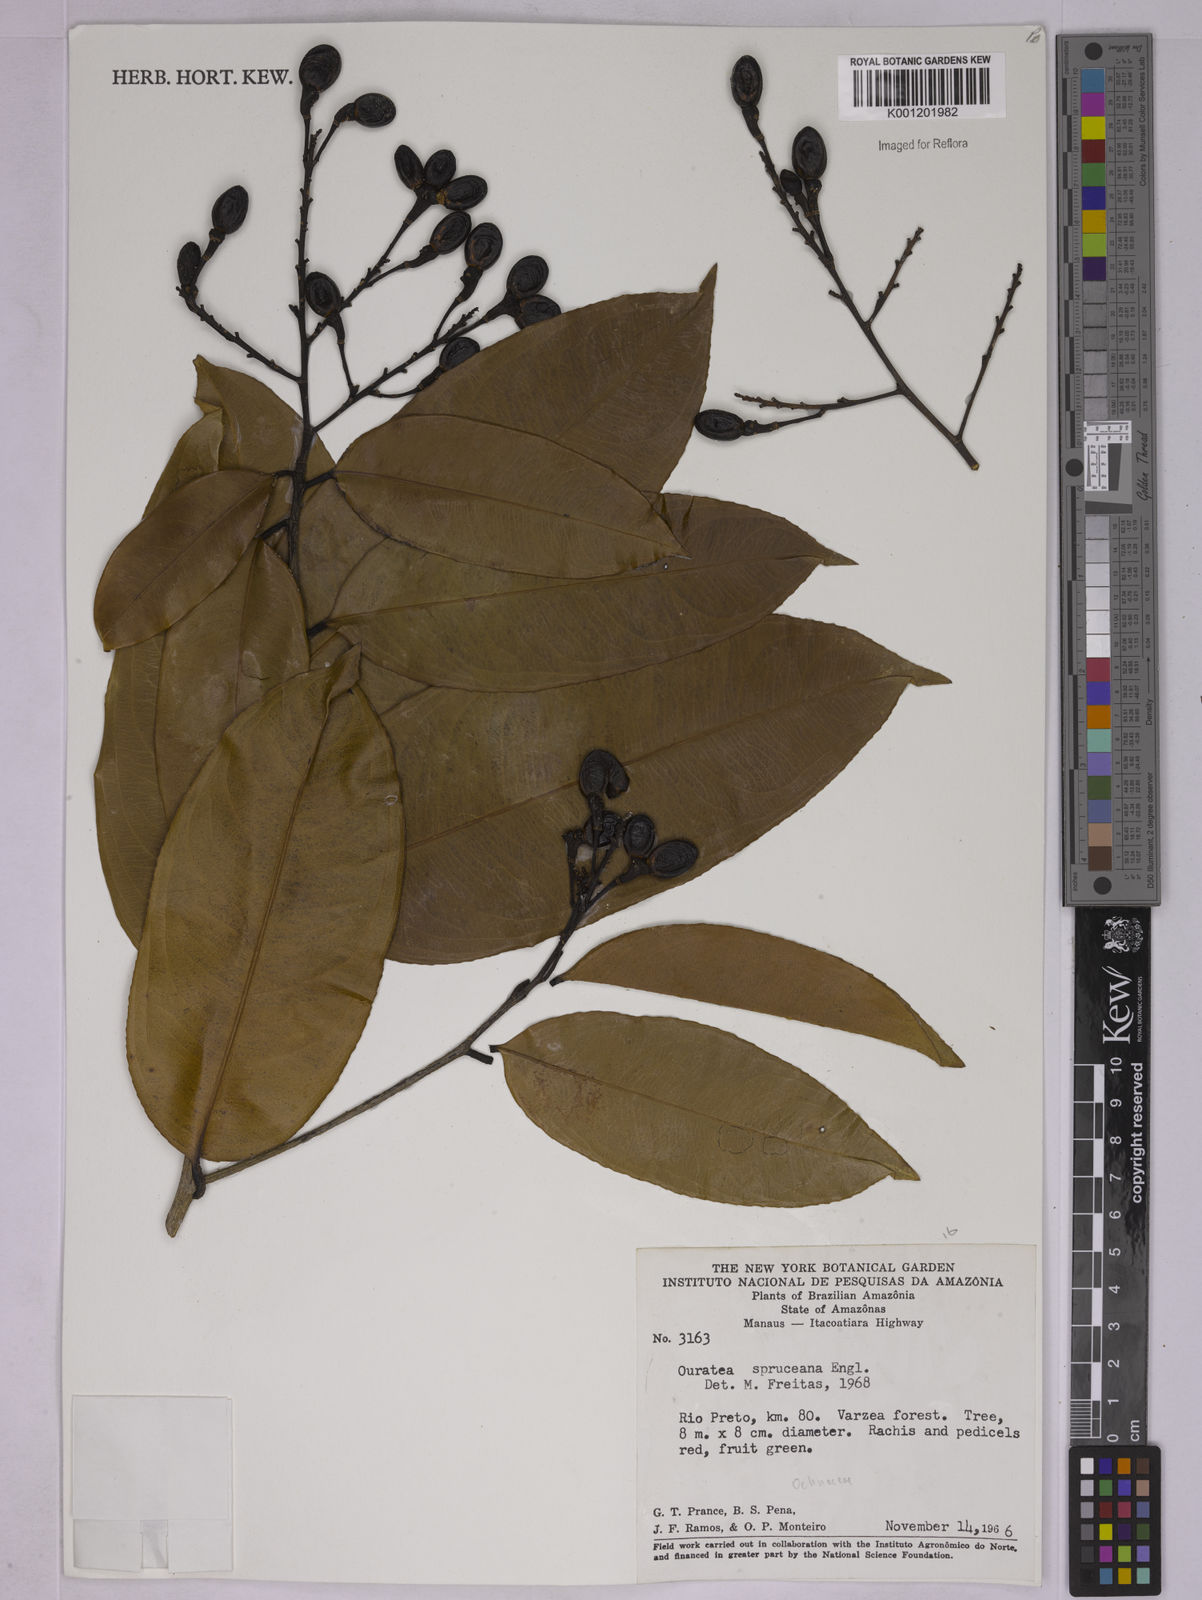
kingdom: Plantae
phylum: Tracheophyta
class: Magnoliopsida
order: Malpighiales
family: Ochnaceae
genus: Ouratea
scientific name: Ouratea spruceana
